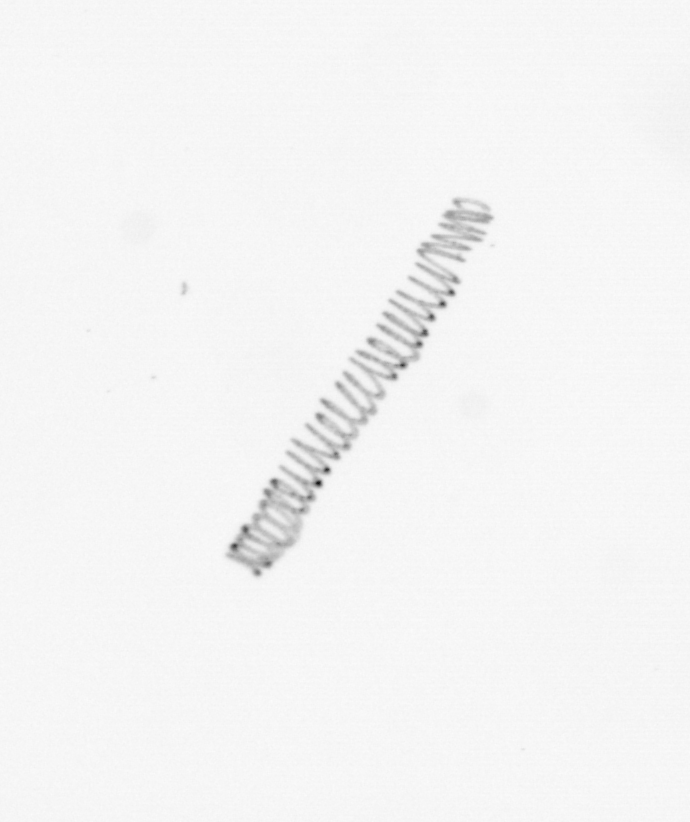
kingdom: Chromista
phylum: Ochrophyta
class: Bacillariophyceae
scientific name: Bacillariophyceae
